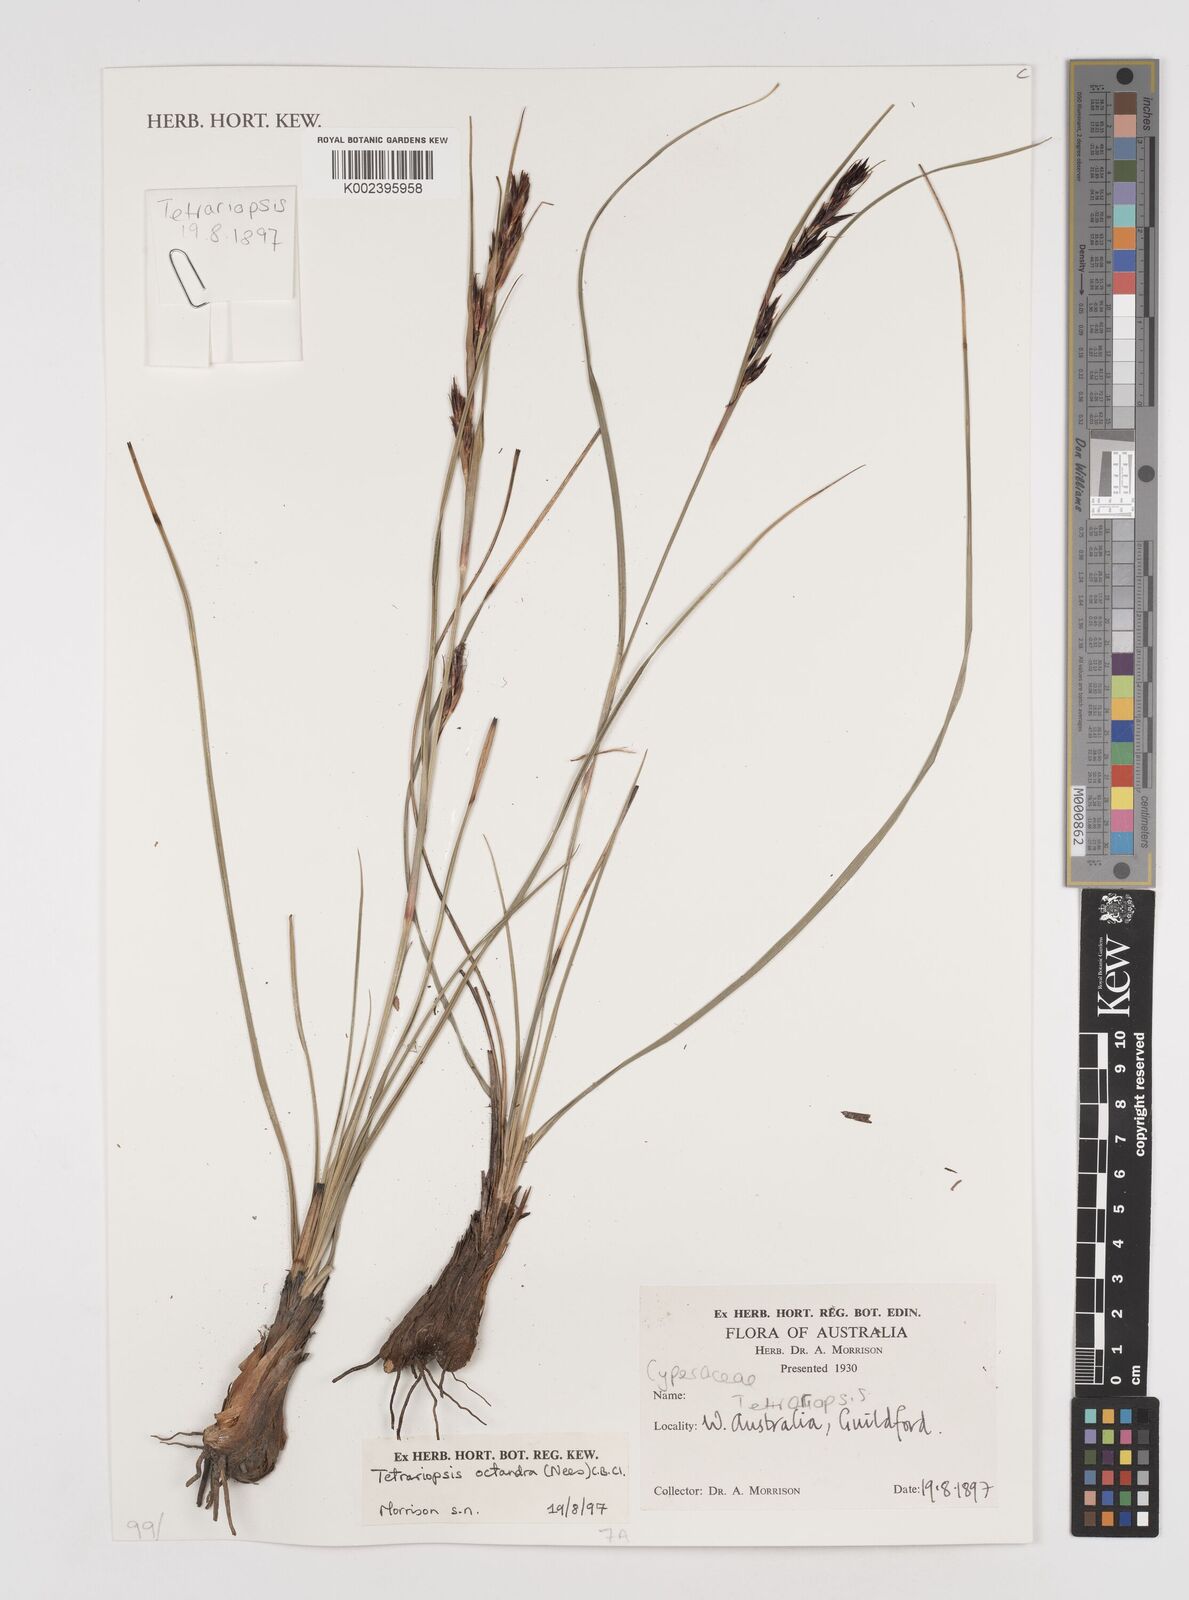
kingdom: Plantae
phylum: Tracheophyta
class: Liliopsida
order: Poales
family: Cyperaceae
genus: Tetraria
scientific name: Tetraria octandra
